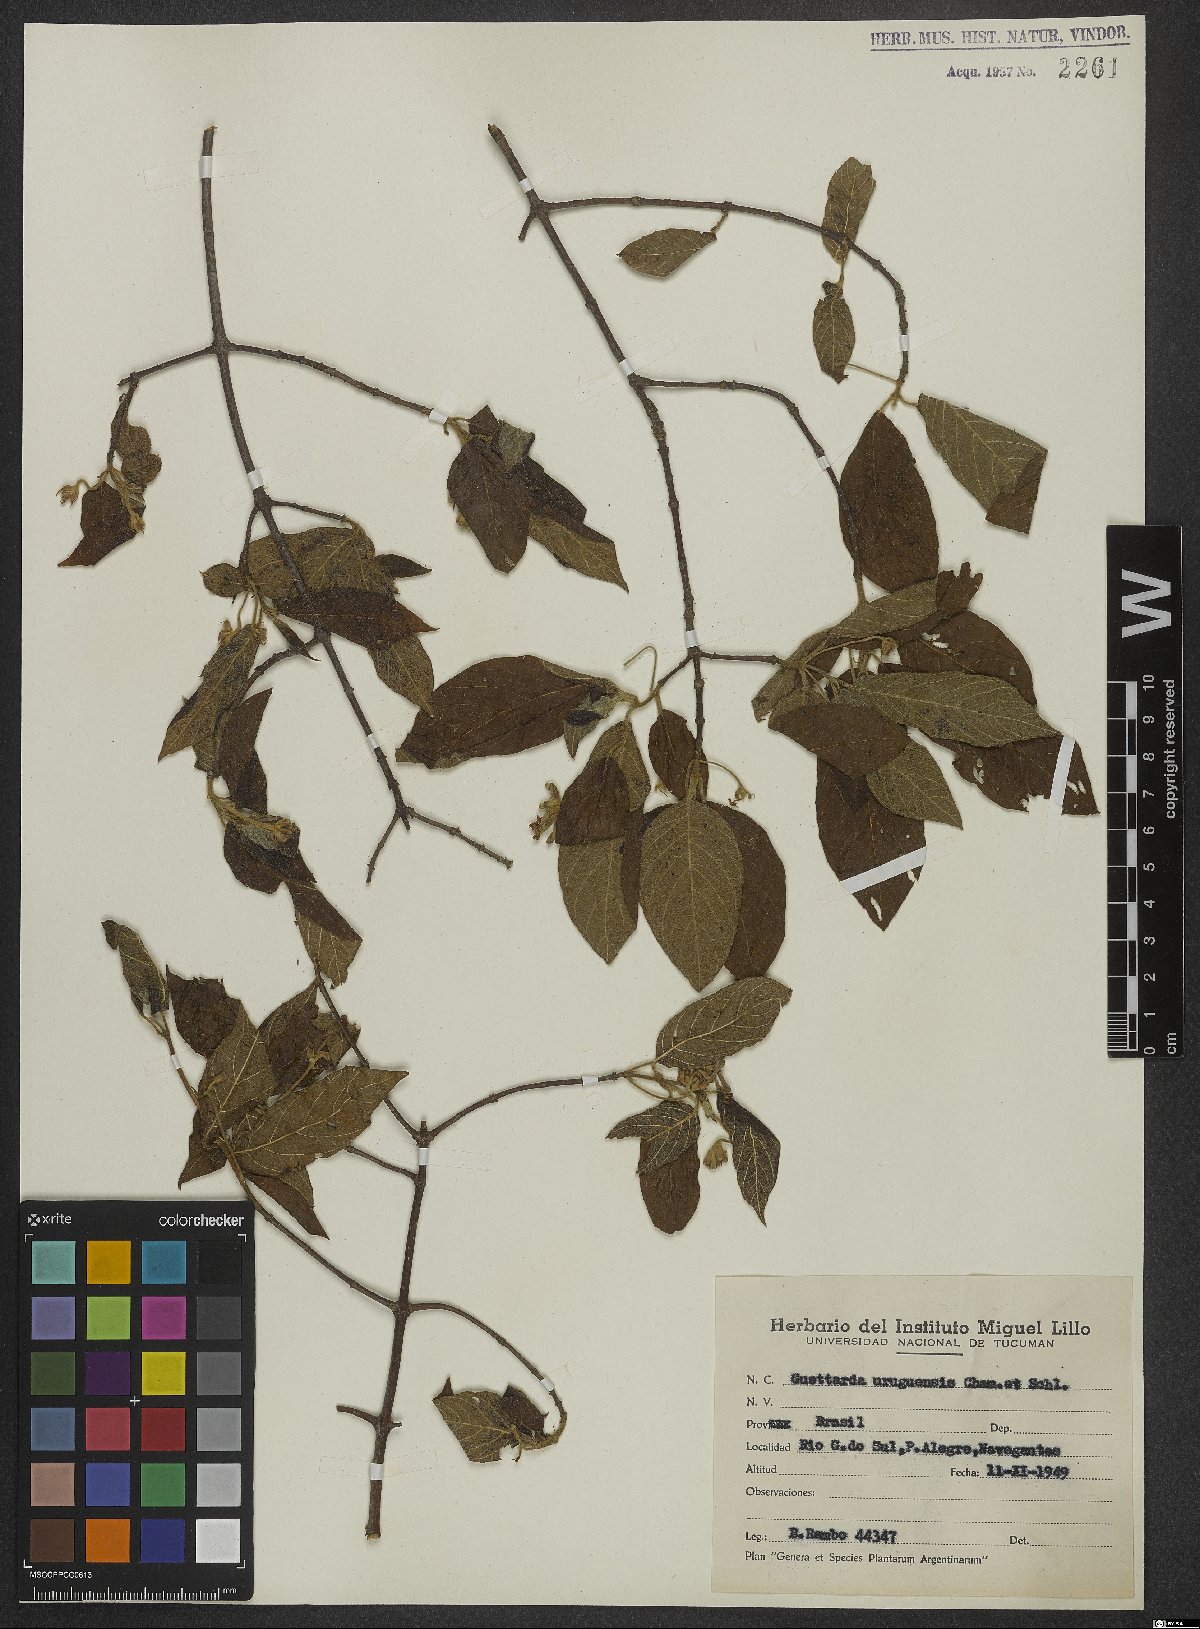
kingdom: Plantae
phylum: Tracheophyta
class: Magnoliopsida
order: Gentianales
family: Rubiaceae
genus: Guettarda
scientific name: Guettarda uruguensis
